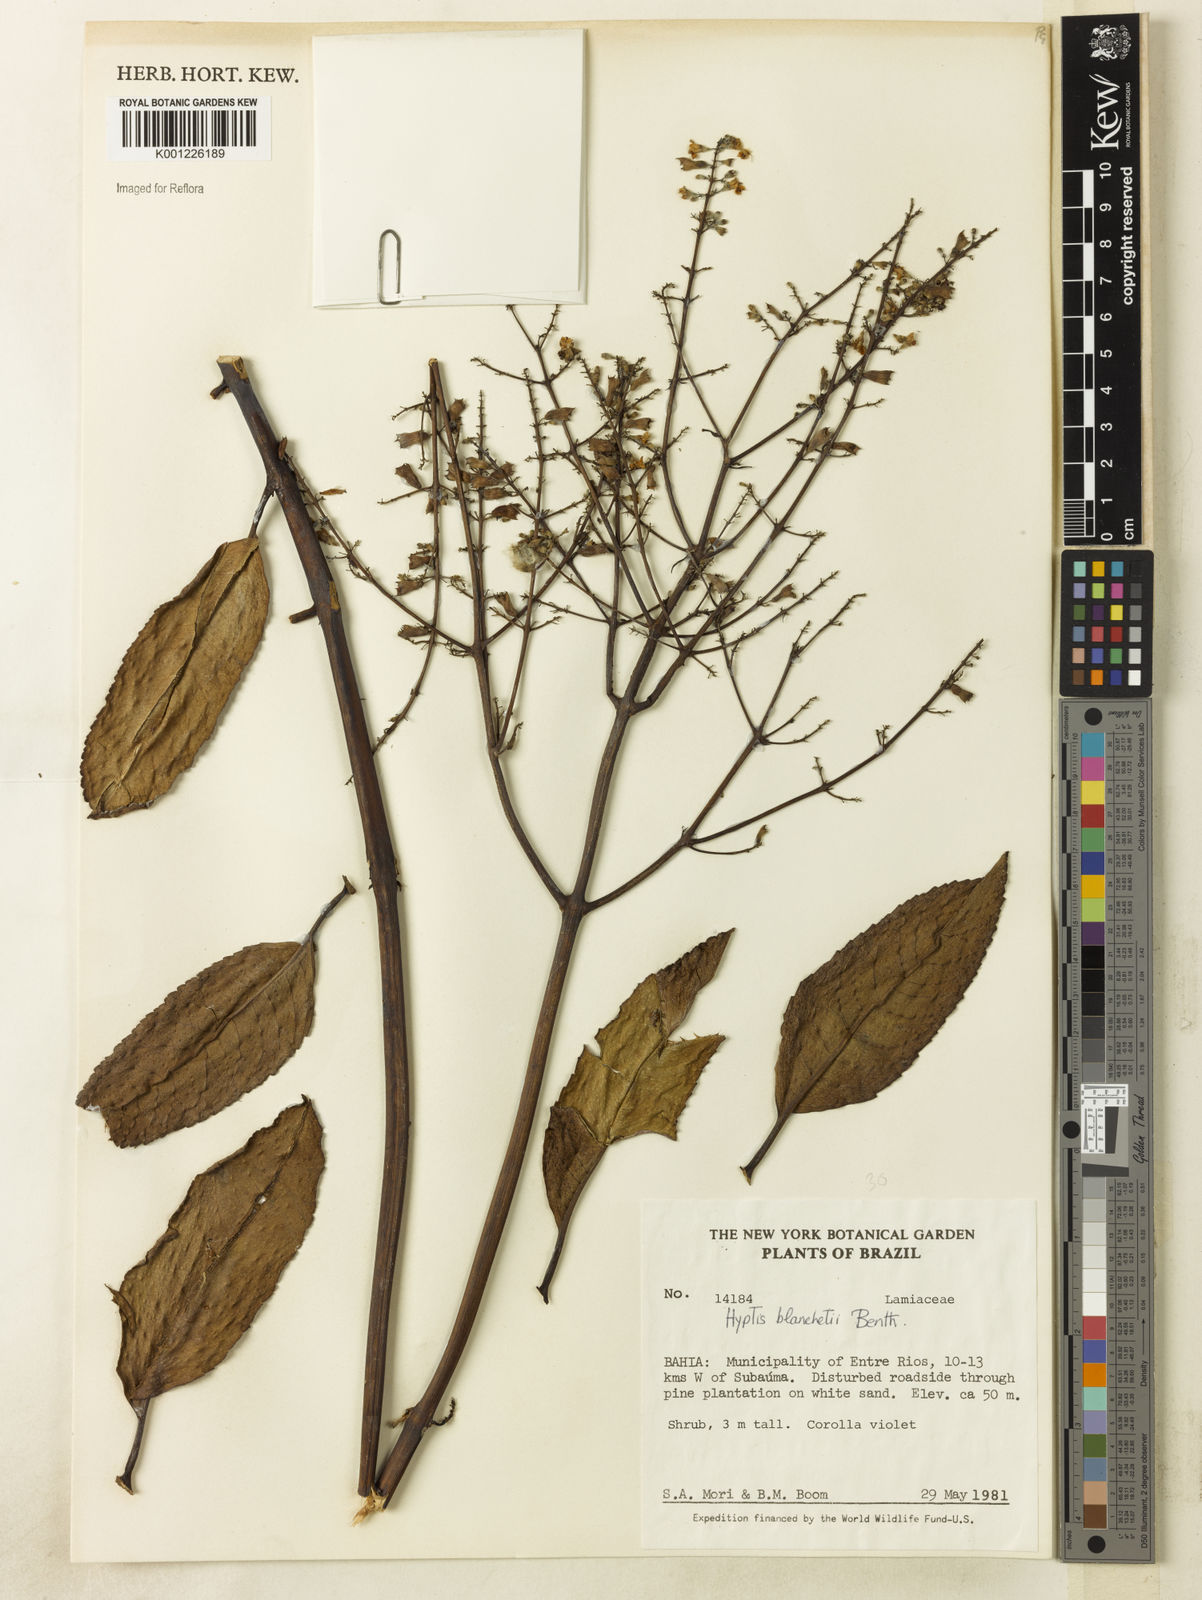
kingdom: Plantae
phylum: Tracheophyta
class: Magnoliopsida
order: Lamiales
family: Lamiaceae
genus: Eriope
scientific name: Eriope blanchetii
